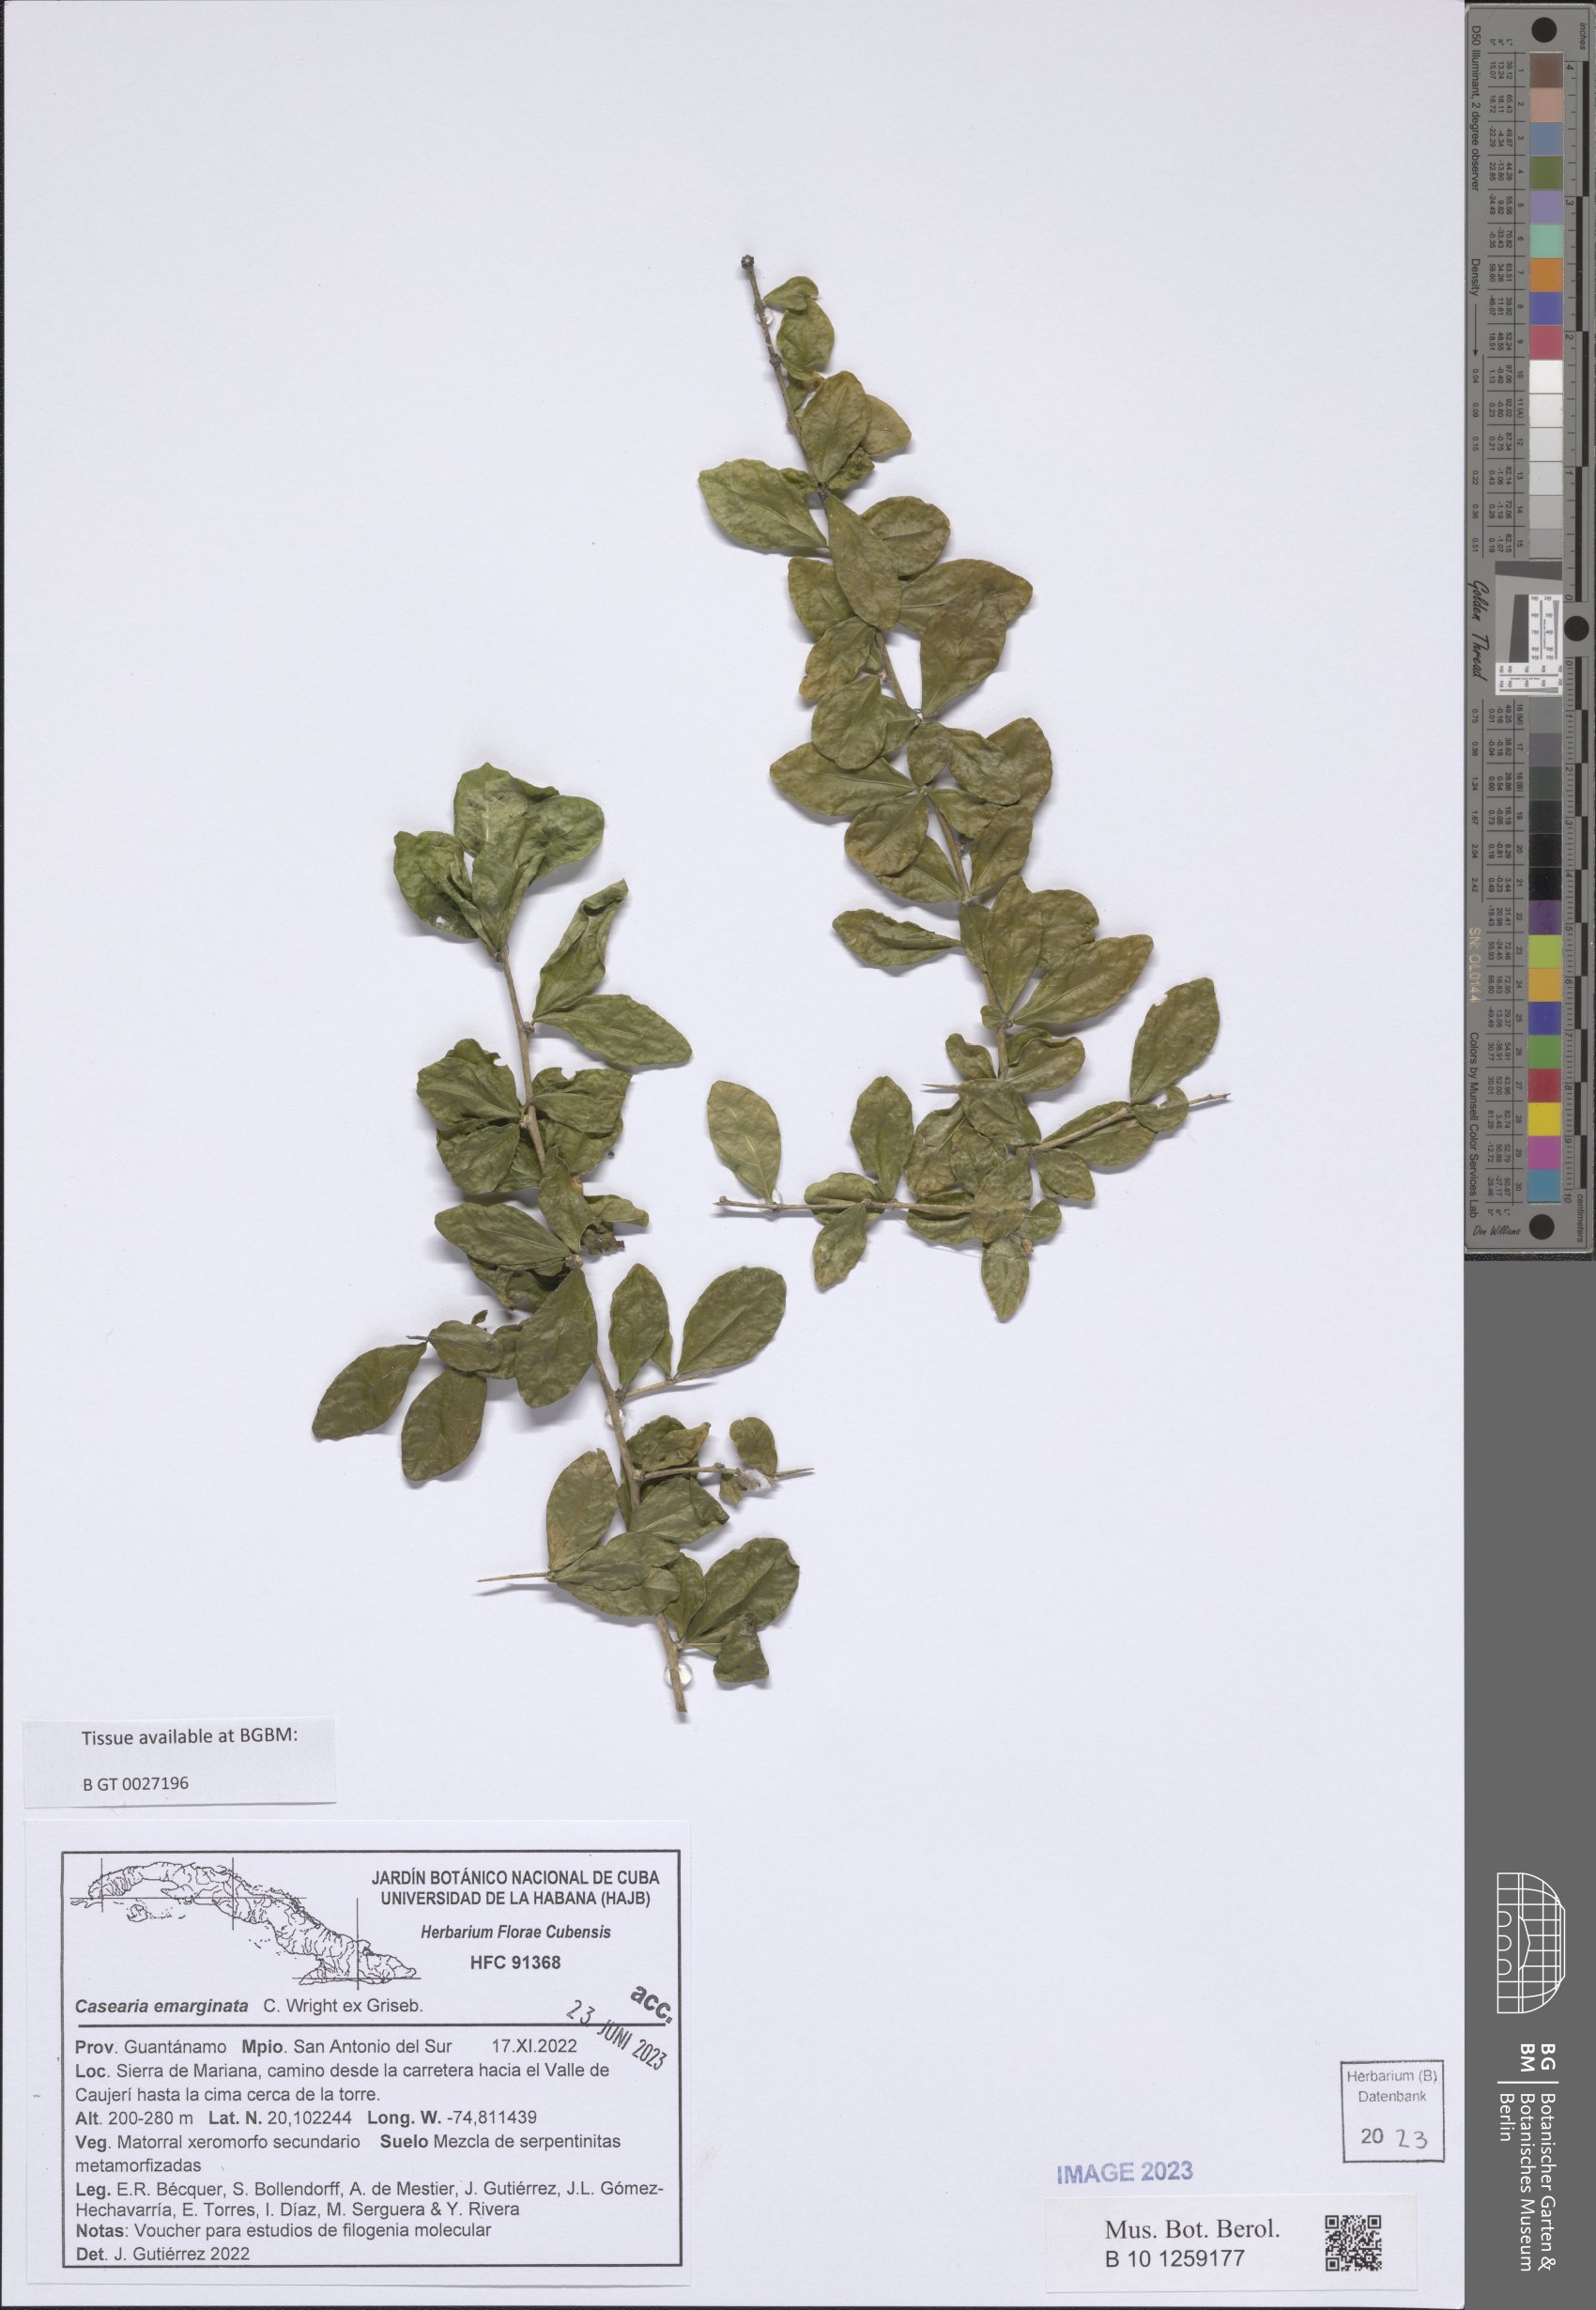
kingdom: Plantae
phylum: Tracheophyta
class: Magnoliopsida
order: Malpighiales
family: Salicaceae
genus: Casearia
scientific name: Casearia emarginata
